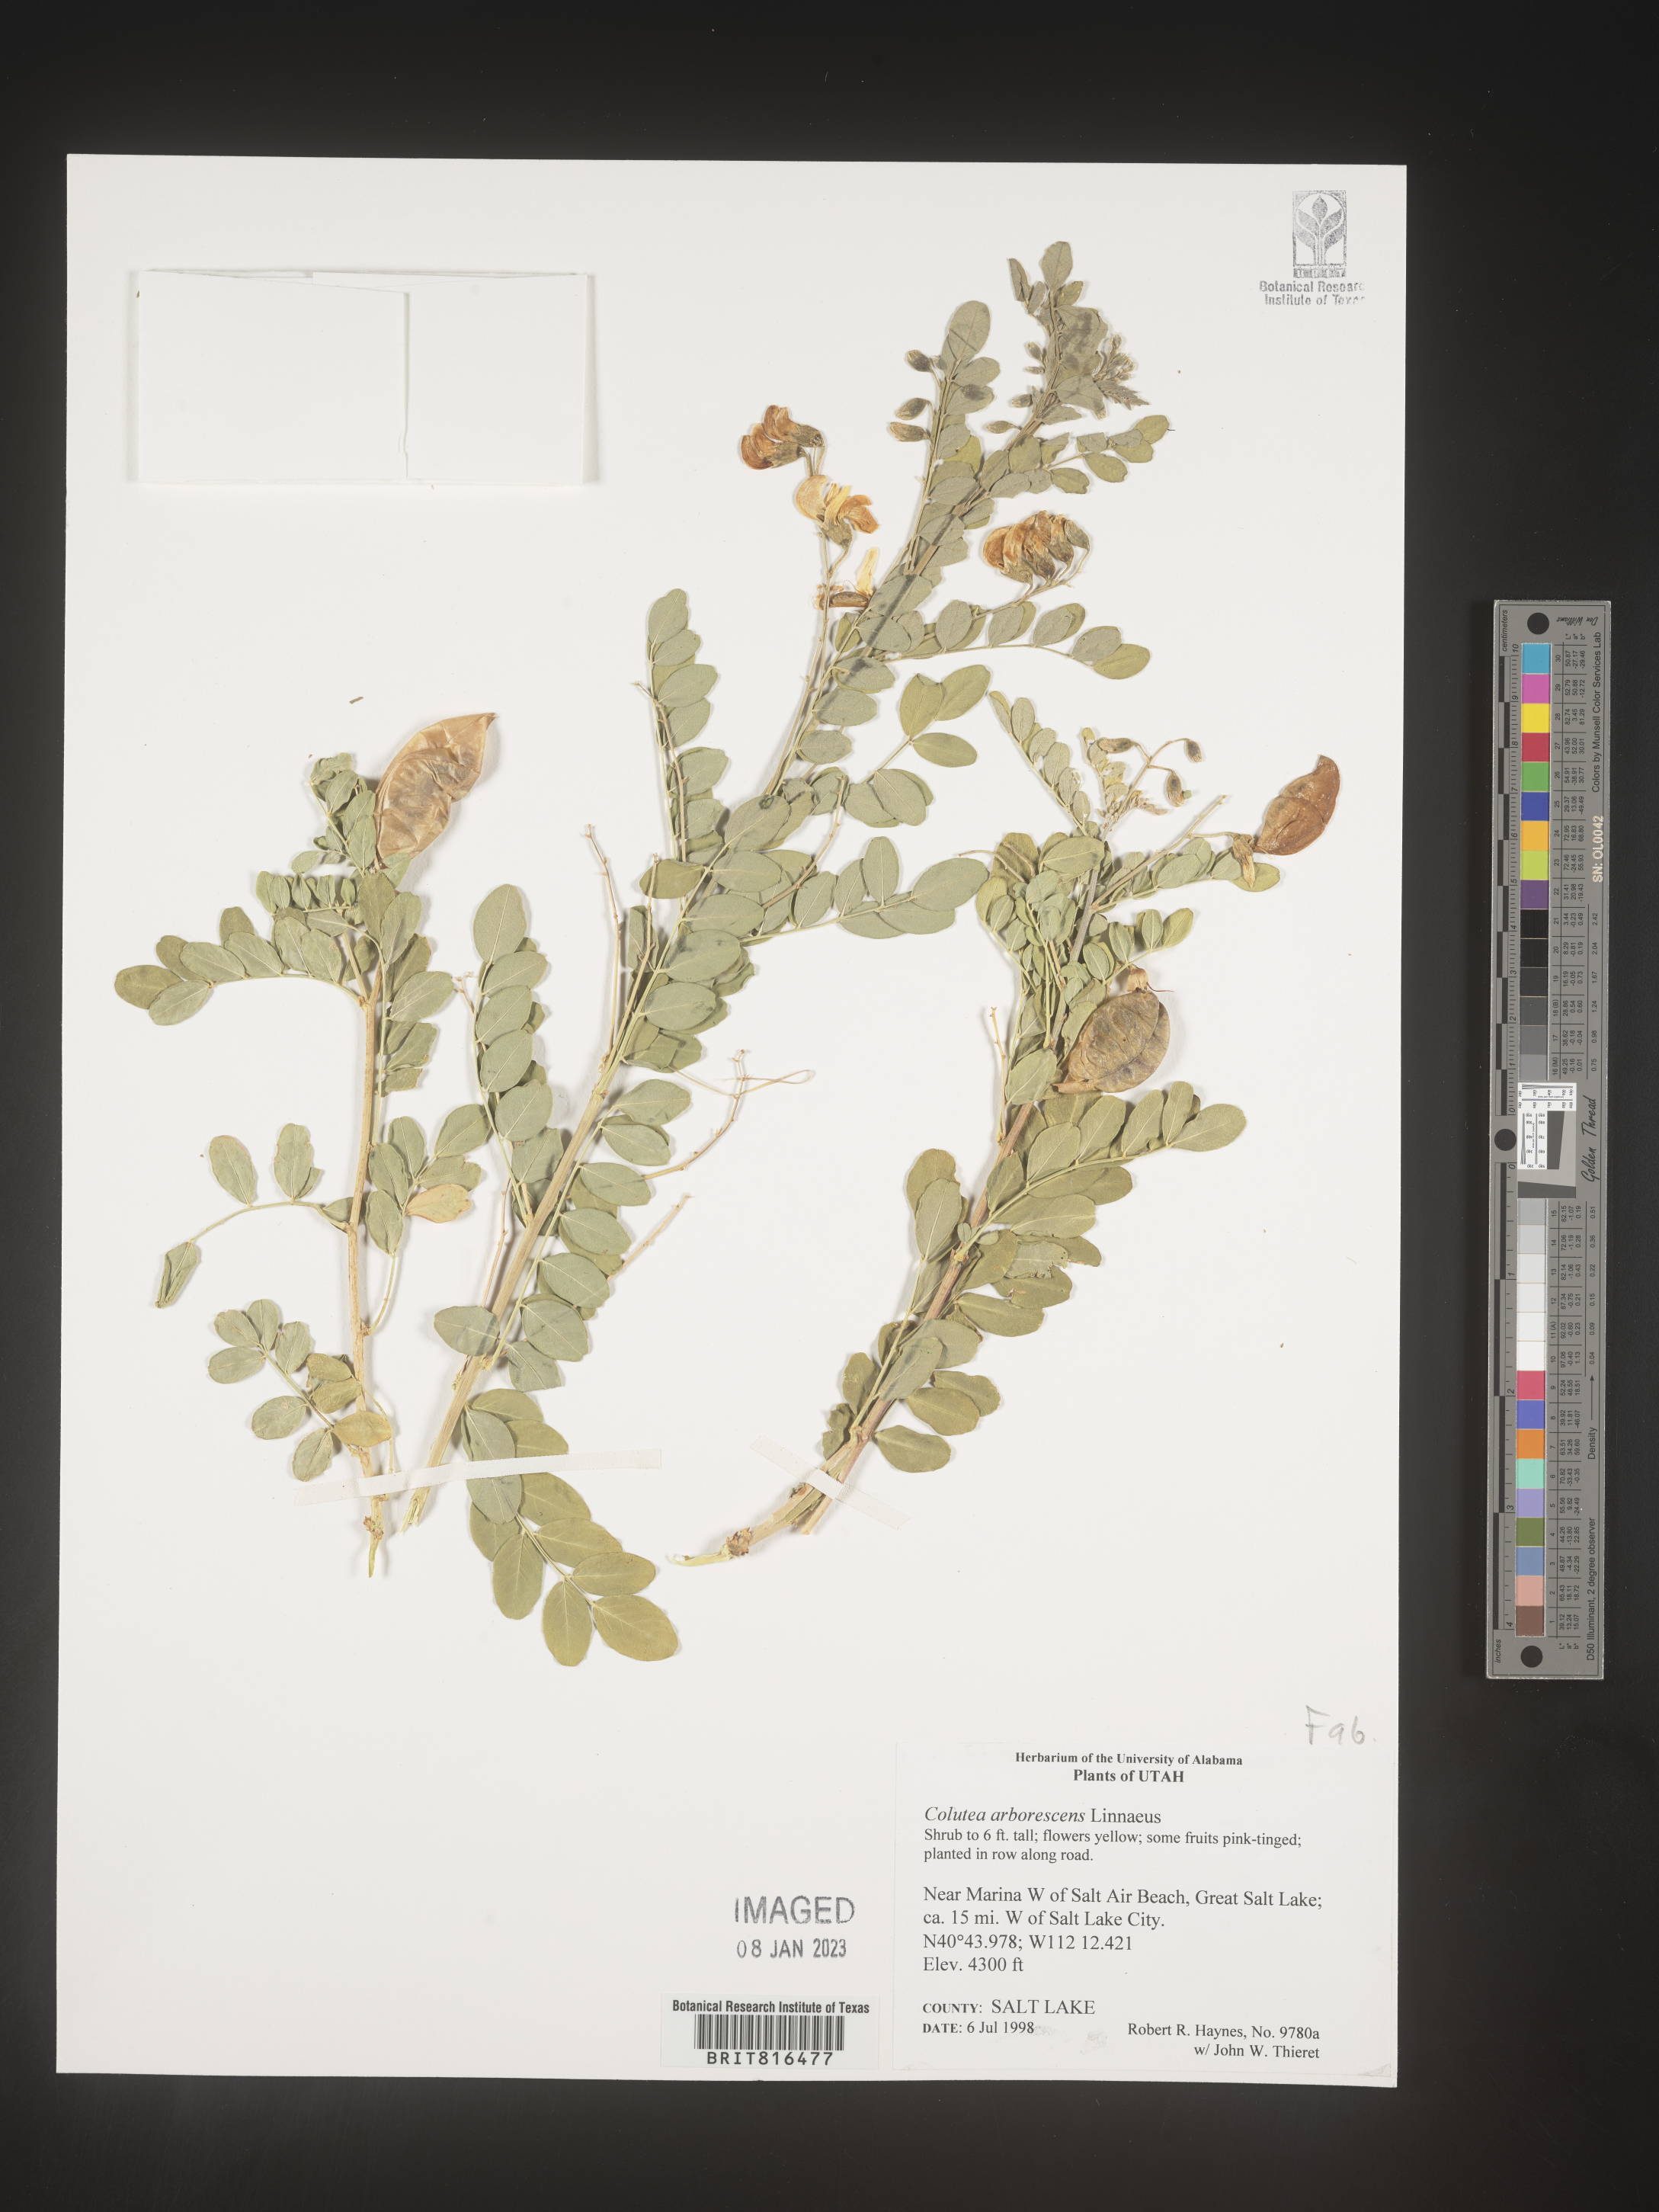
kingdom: Plantae
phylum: Tracheophyta
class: Magnoliopsida
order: Fabales
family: Fabaceae
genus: Colutea
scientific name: Colutea
